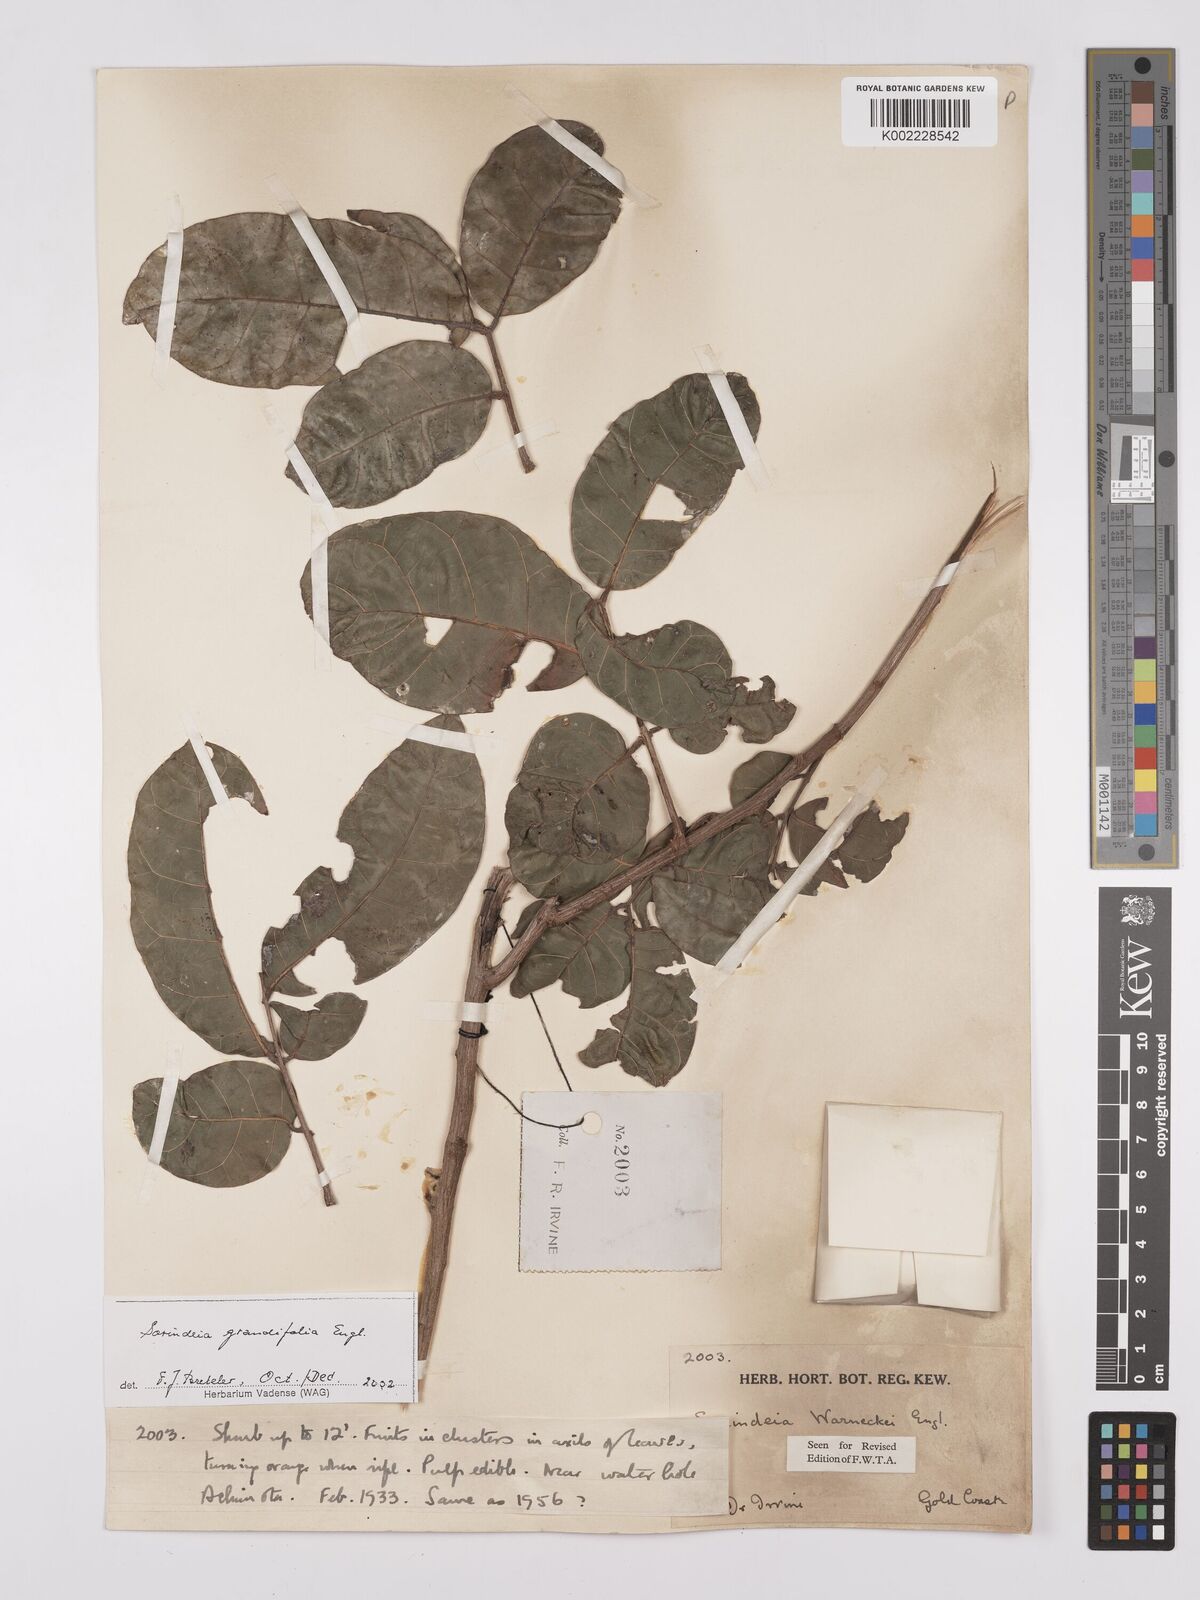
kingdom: Plantae
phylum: Tracheophyta
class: Magnoliopsida
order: Sapindales
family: Anacardiaceae
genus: Sorindeia
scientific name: Sorindeia grandifolia
